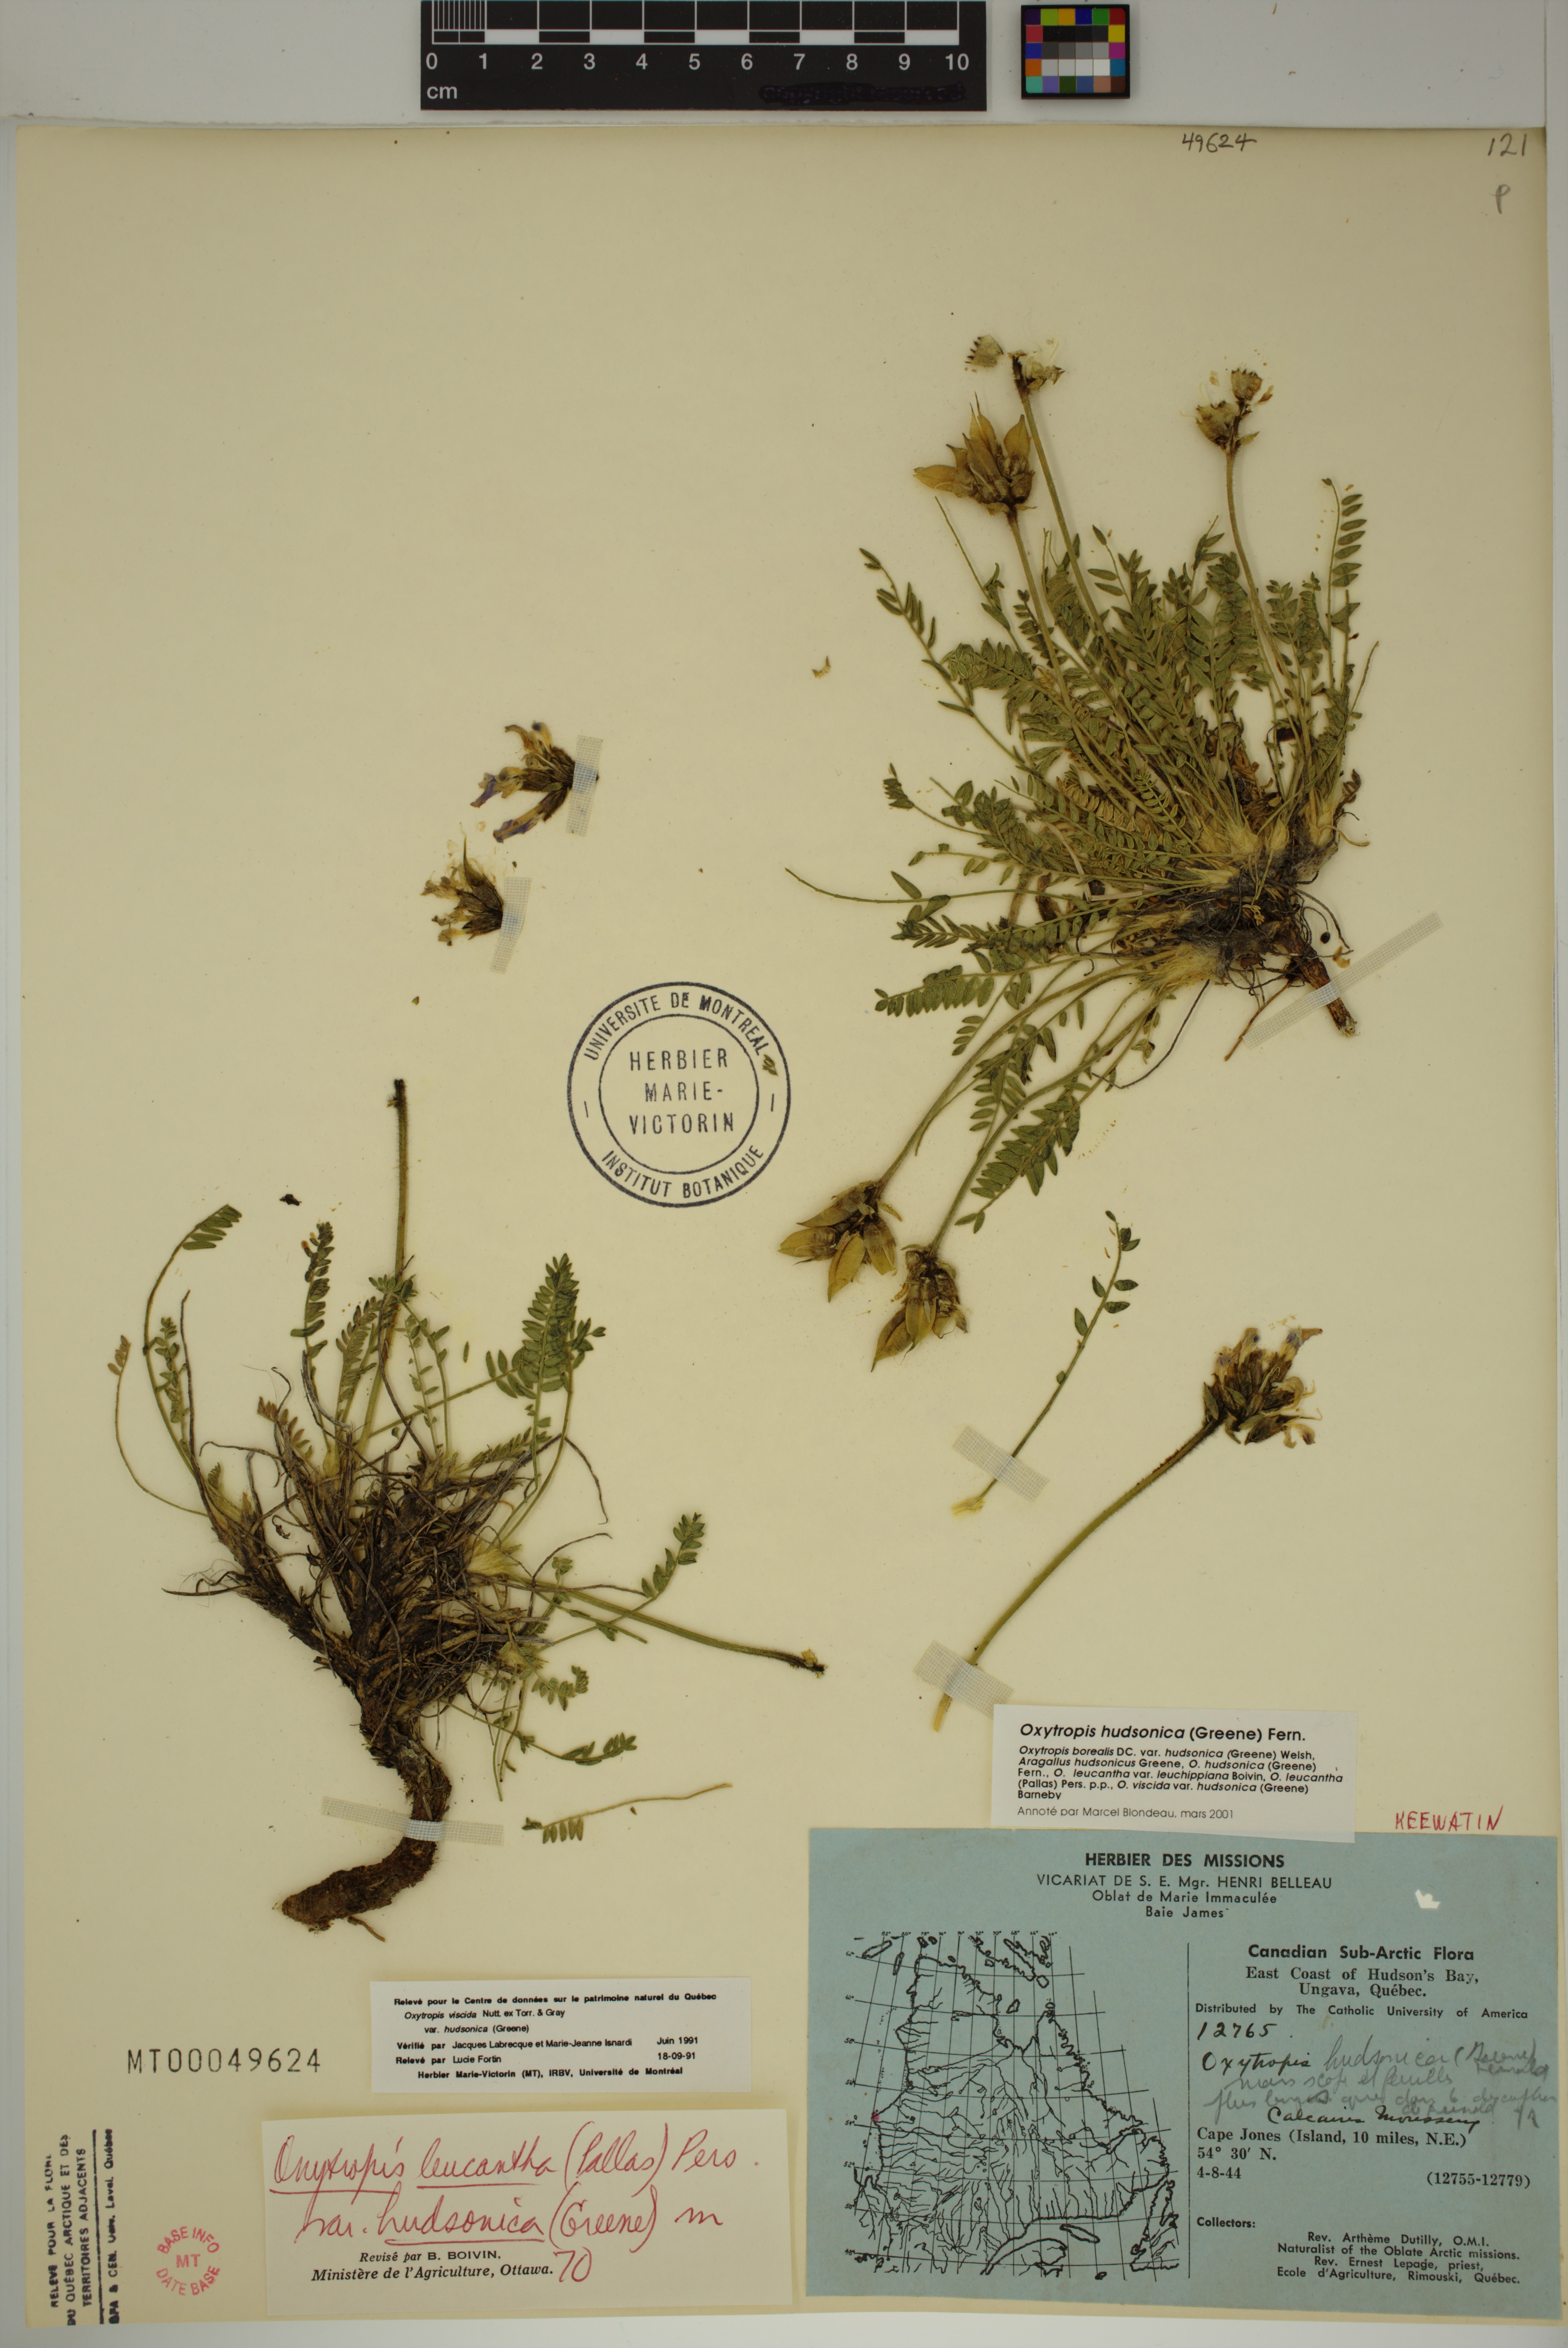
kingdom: Plantae
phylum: Tracheophyta
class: Magnoliopsida
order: Fabales
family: Fabaceae
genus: Oxytropis
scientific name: Oxytropis hudsonica
